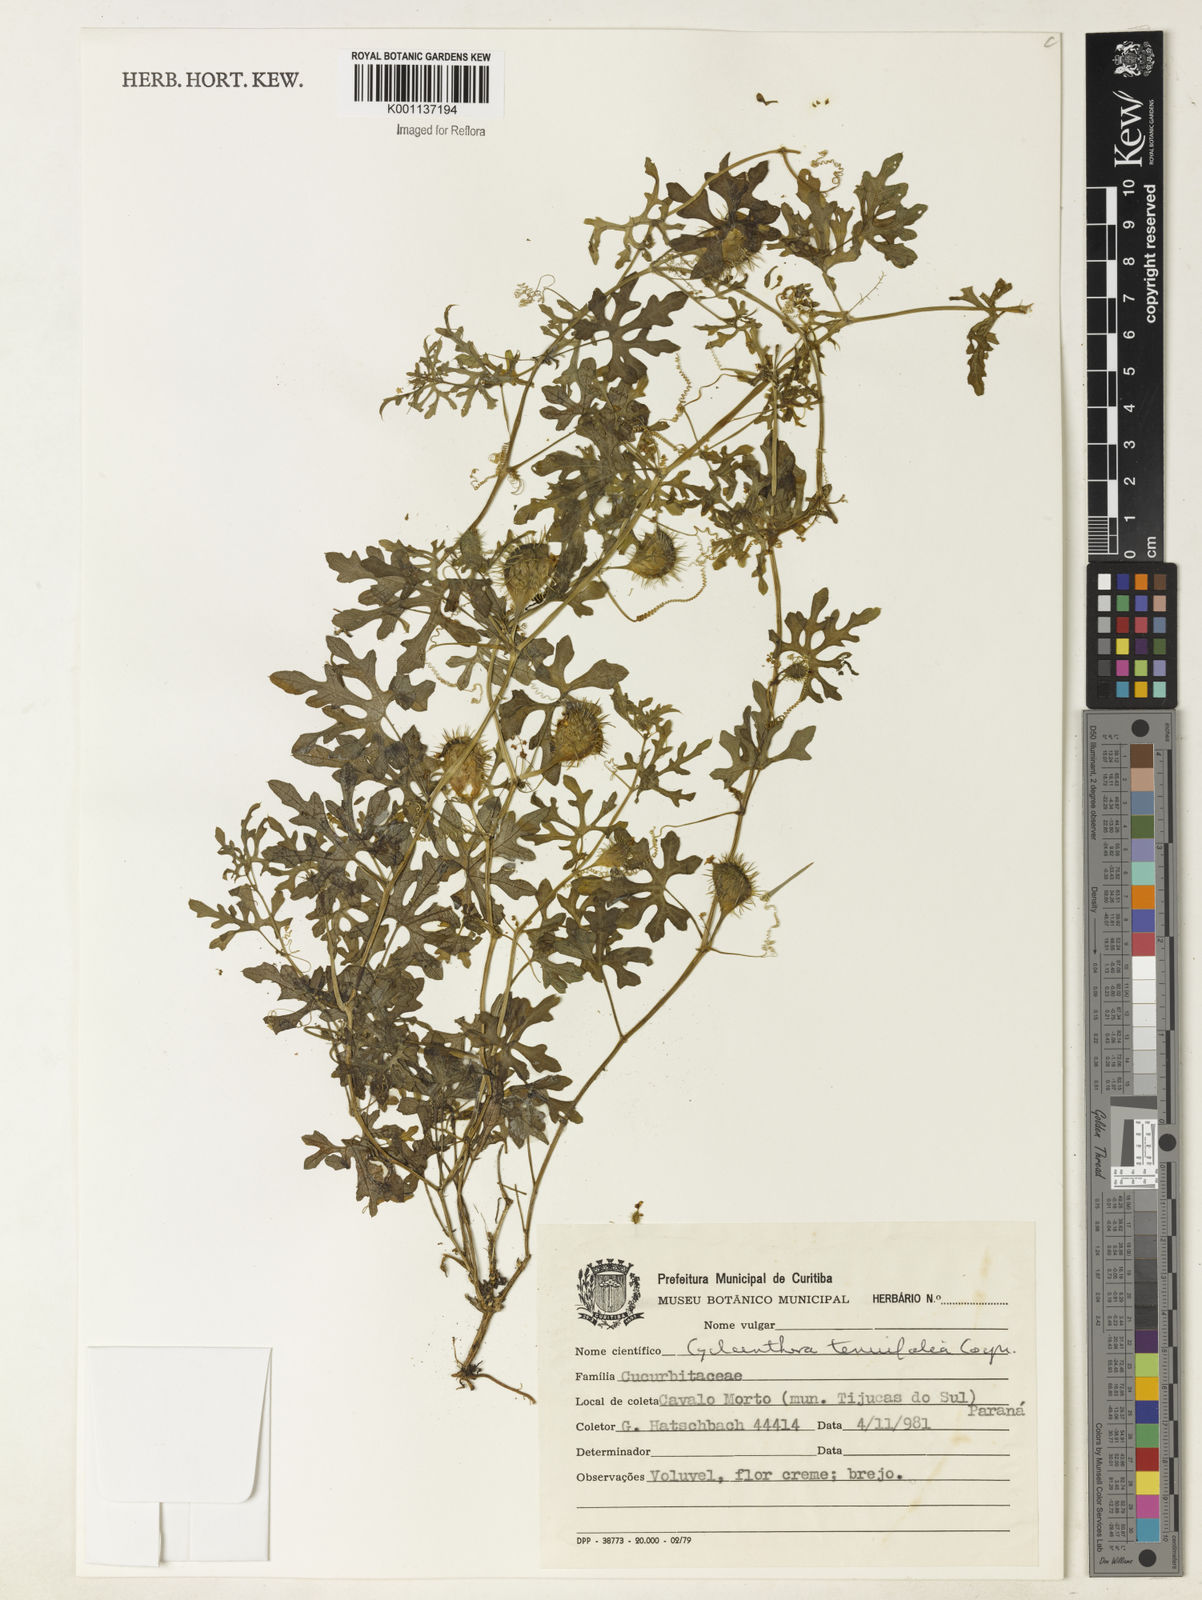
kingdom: Plantae
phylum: Tracheophyta
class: Magnoliopsida
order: Cucurbitales
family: Cucurbitaceae
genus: Cyclanthera
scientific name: Cyclanthera tenuifolia
